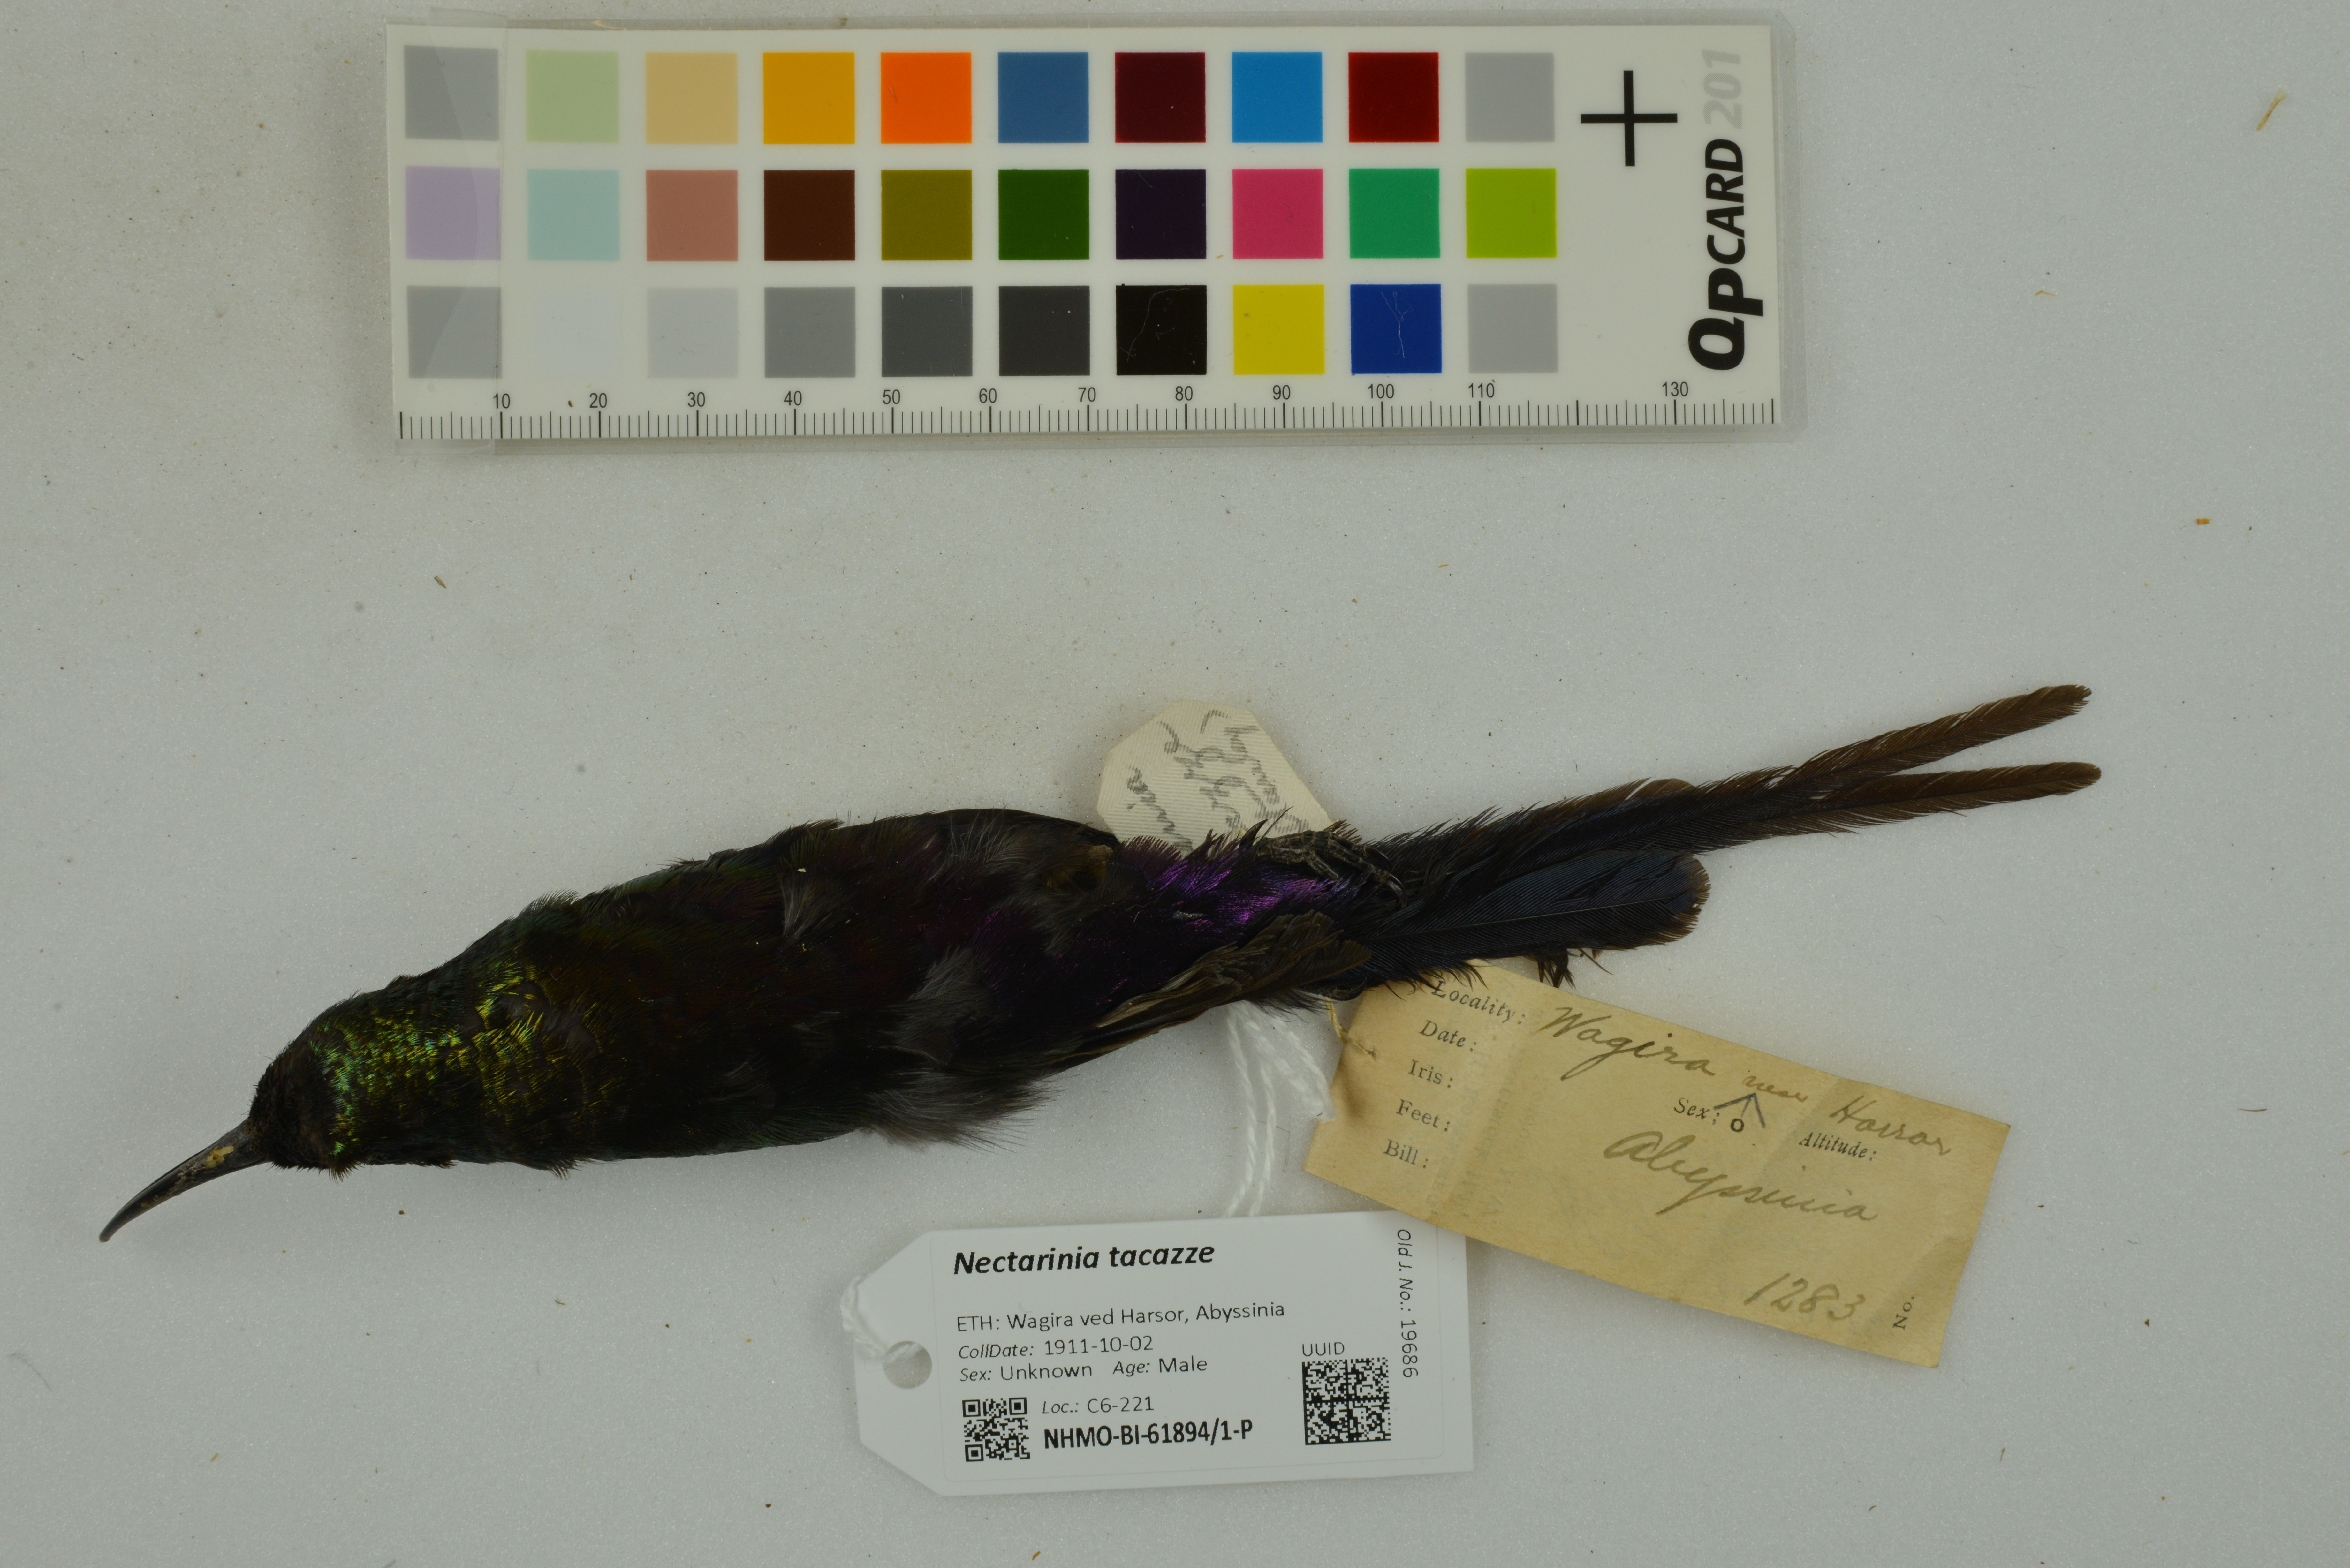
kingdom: Animalia
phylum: Chordata
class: Aves
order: Passeriformes
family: Nectariniidae
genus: Nectarinia
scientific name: Nectarinia tacazze
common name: Tacazze sunbird
